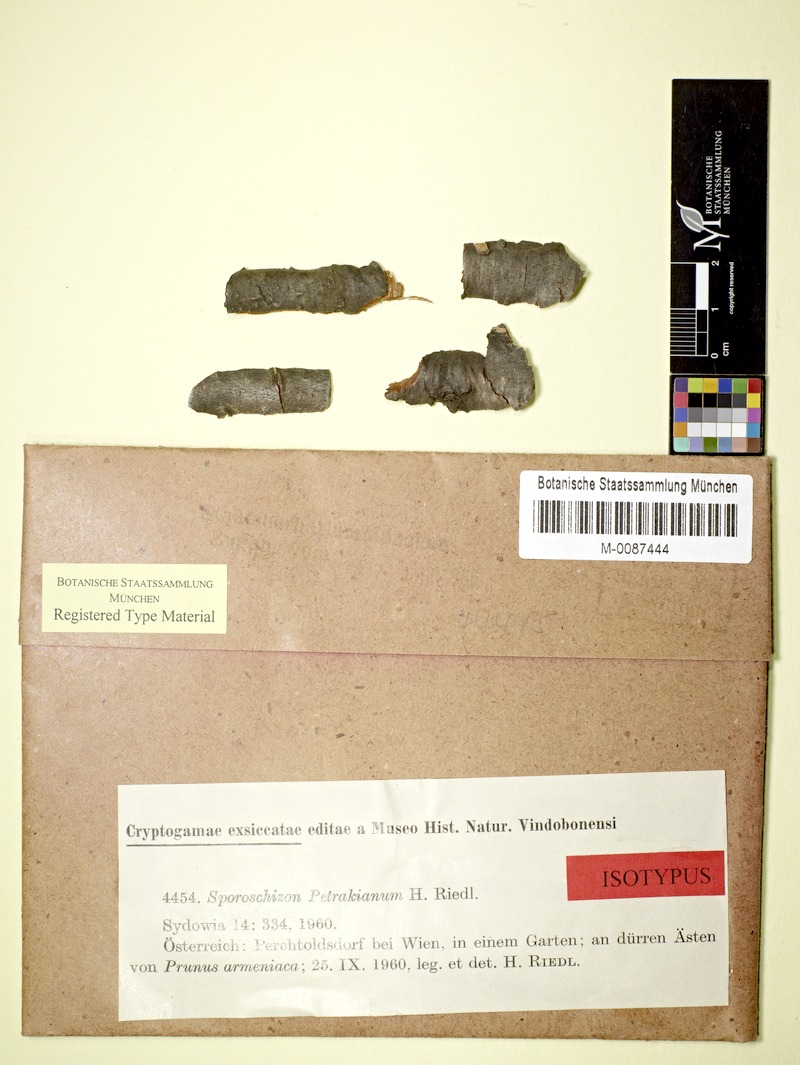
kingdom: Fungi
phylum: Ascomycota
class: Dothideomycetes
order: Pleosporales
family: Naetrocymbaceae
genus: Sporoschizon
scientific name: Sporoschizon petrakianum
